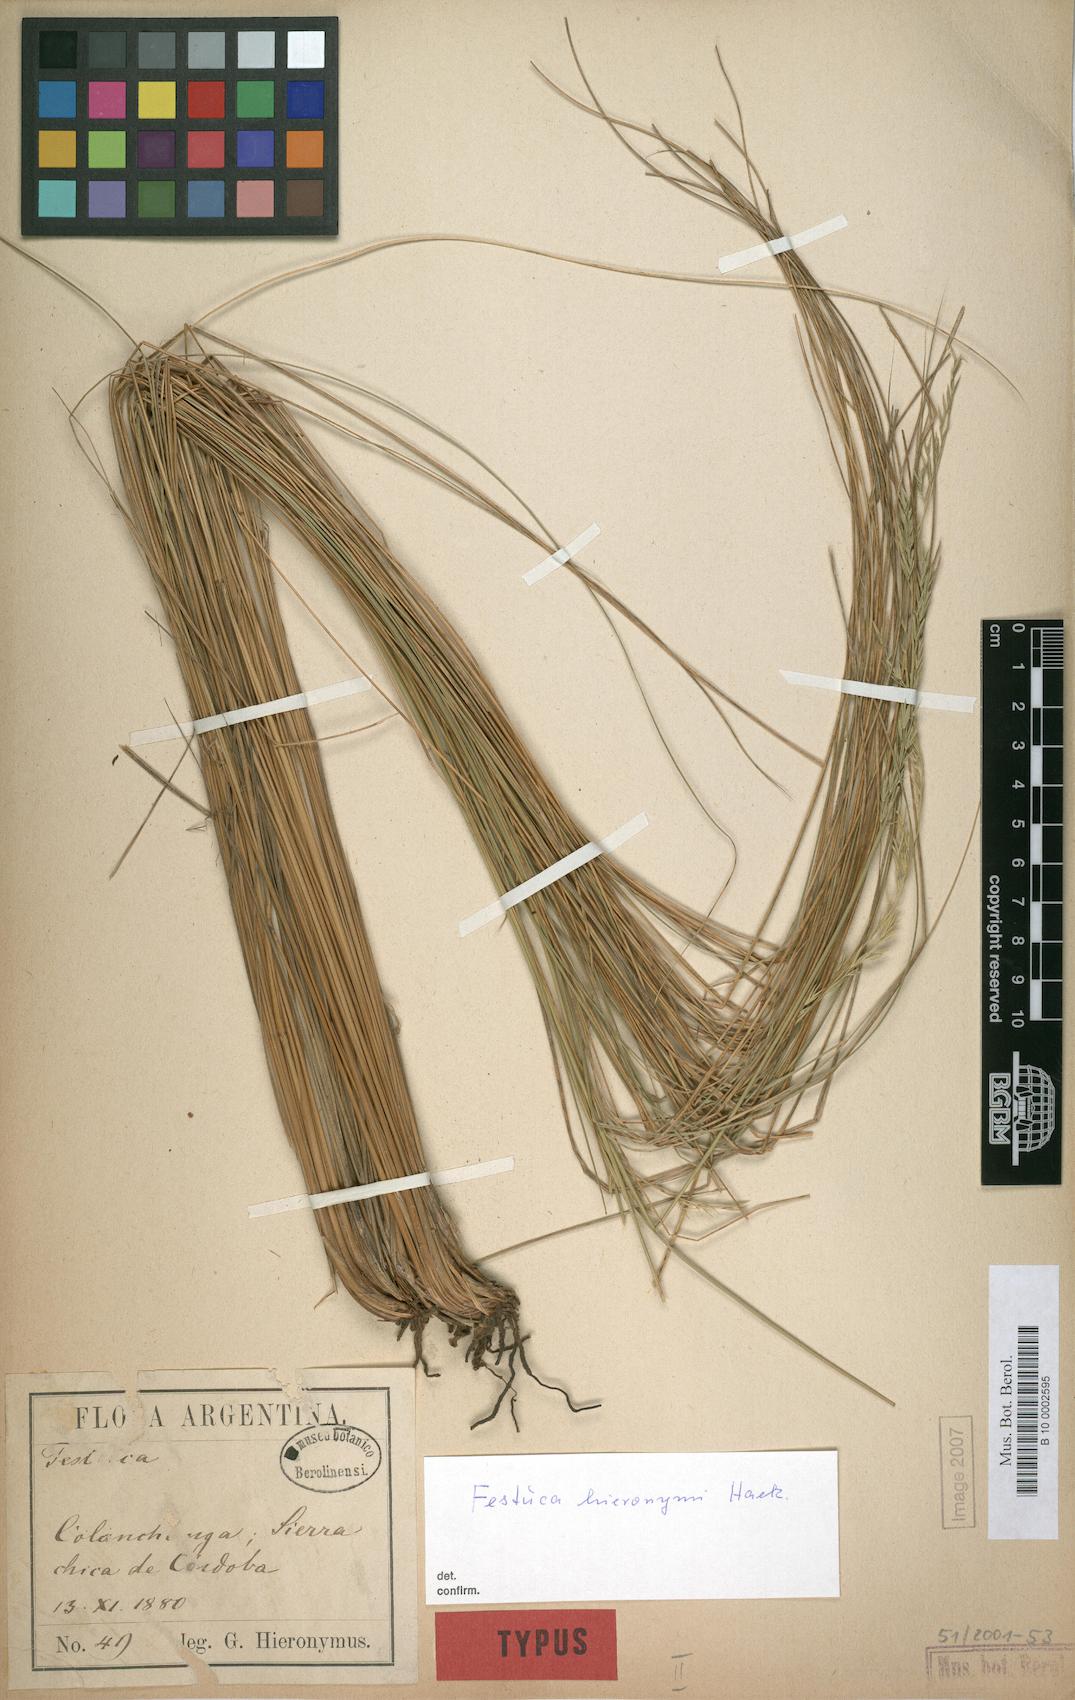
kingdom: Plantae
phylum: Tracheophyta
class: Liliopsida
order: Poales
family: Poaceae
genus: Festuca
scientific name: Festuca hieronymi
